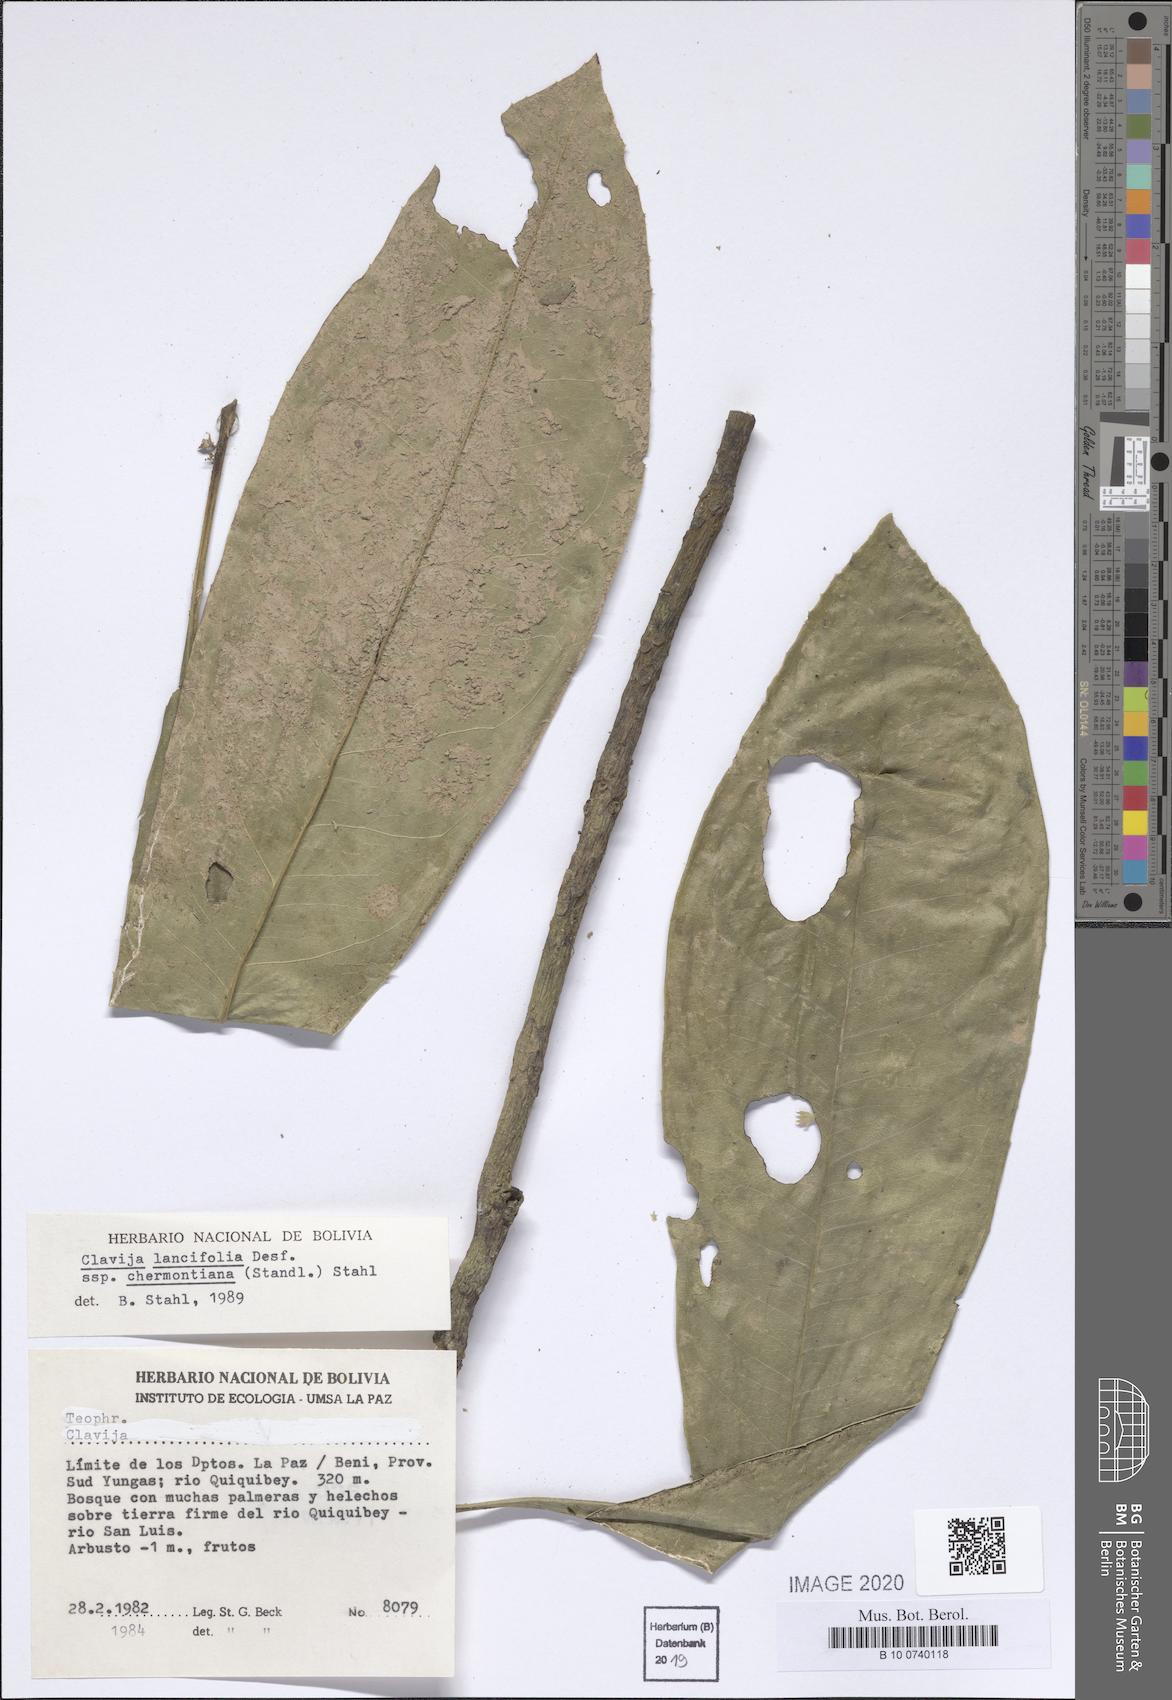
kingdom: Plantae
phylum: Tracheophyta
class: Magnoliopsida
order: Ericales
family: Primulaceae
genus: Clavija
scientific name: Clavija lancifolia
